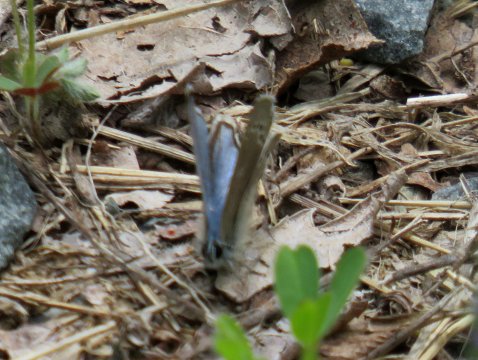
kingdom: Animalia
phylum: Arthropoda
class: Insecta
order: Lepidoptera
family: Lycaenidae
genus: Glaucopsyche
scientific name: Glaucopsyche lygdamus
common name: Silvery Blue
